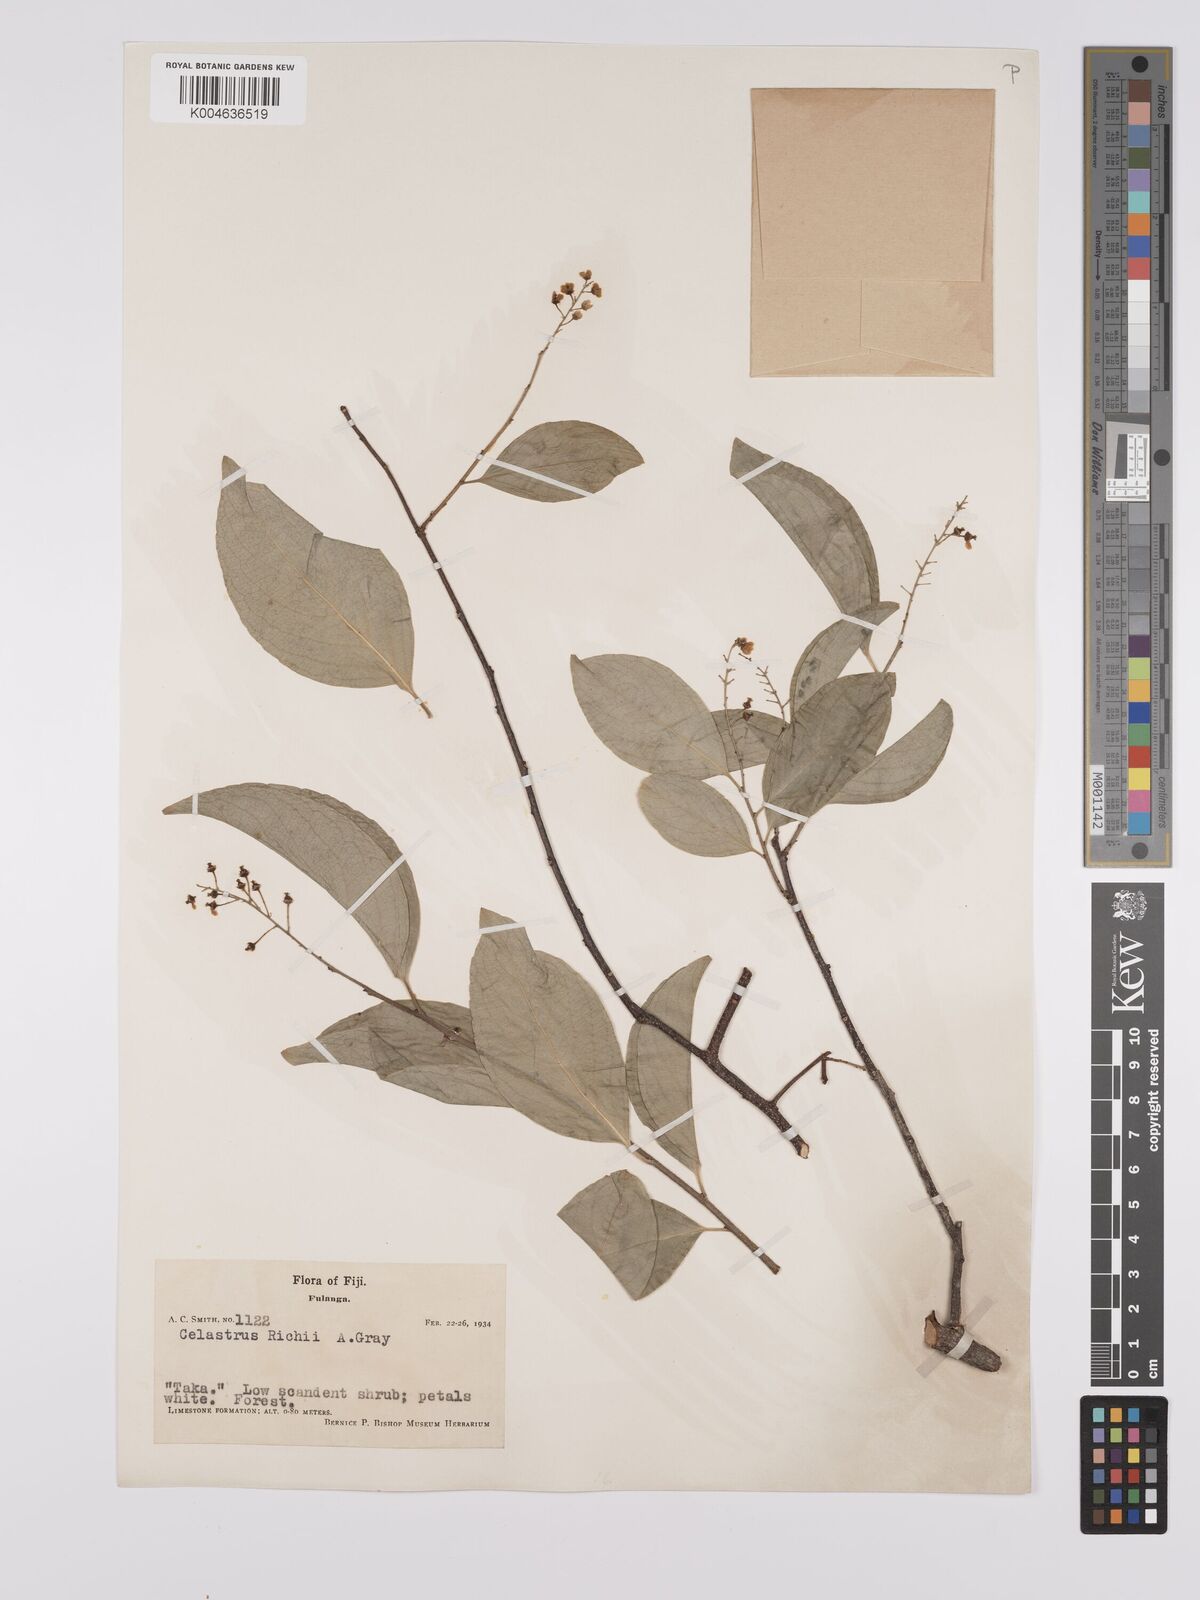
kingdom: Plantae
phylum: Tracheophyta
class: Magnoliopsida
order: Celastrales
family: Celastraceae
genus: Celastrus
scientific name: Celastrus richii
